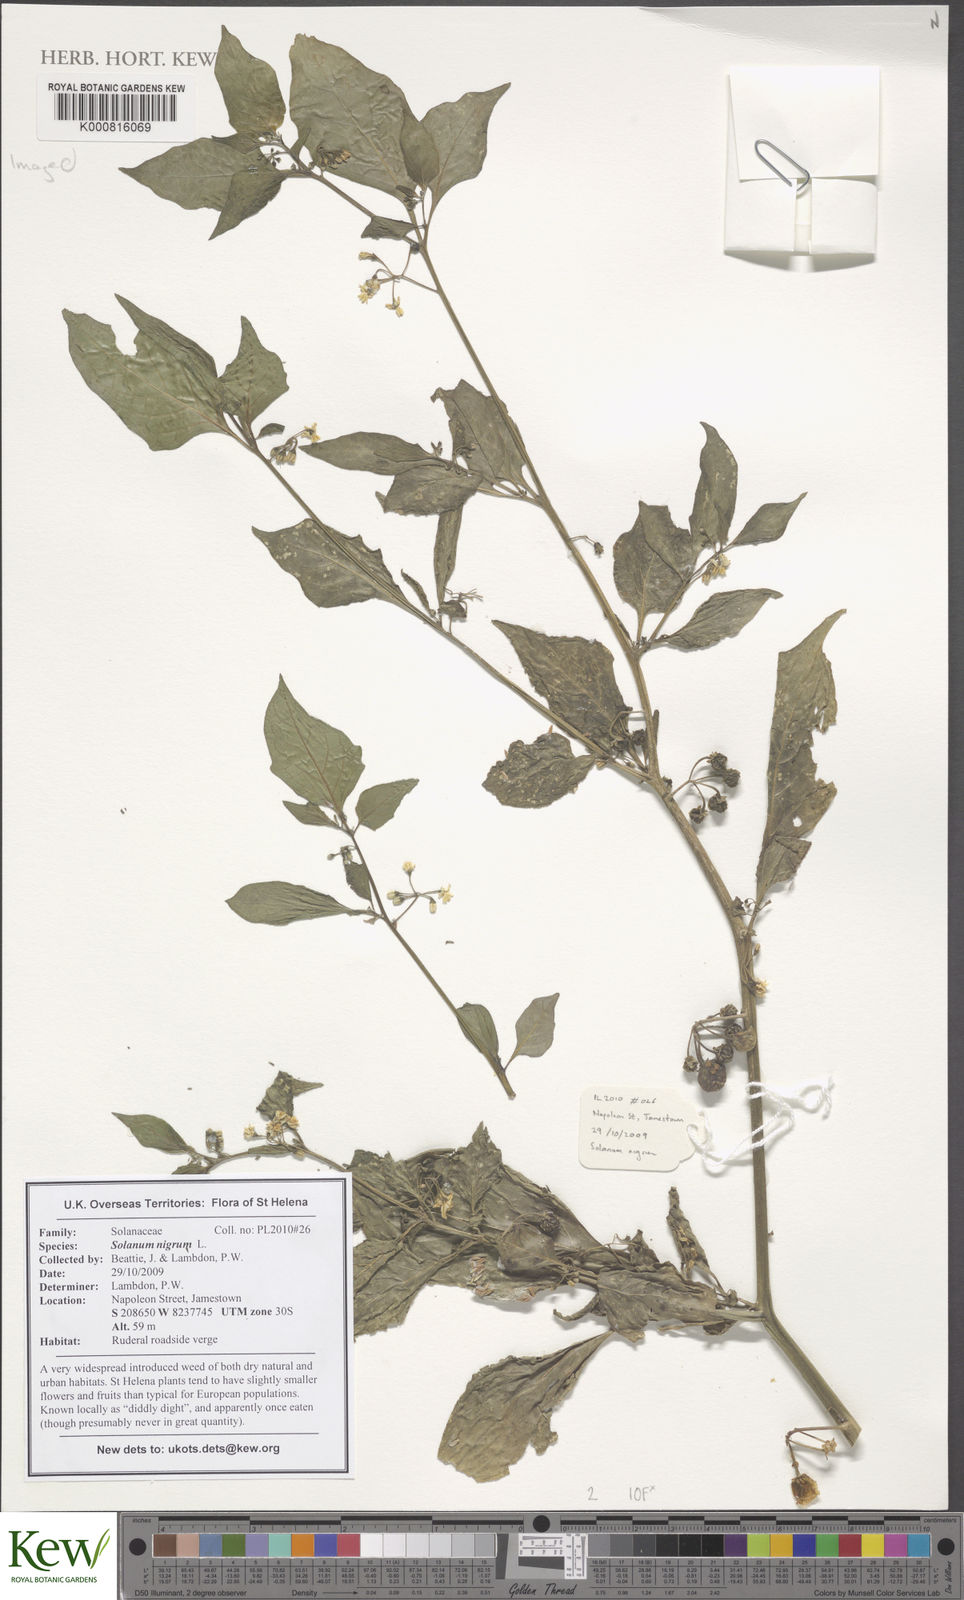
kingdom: Plantae
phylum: Tracheophyta
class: Magnoliopsida
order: Solanales
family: Solanaceae
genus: Solanum
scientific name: Solanum nigrum
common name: Black nightshade
